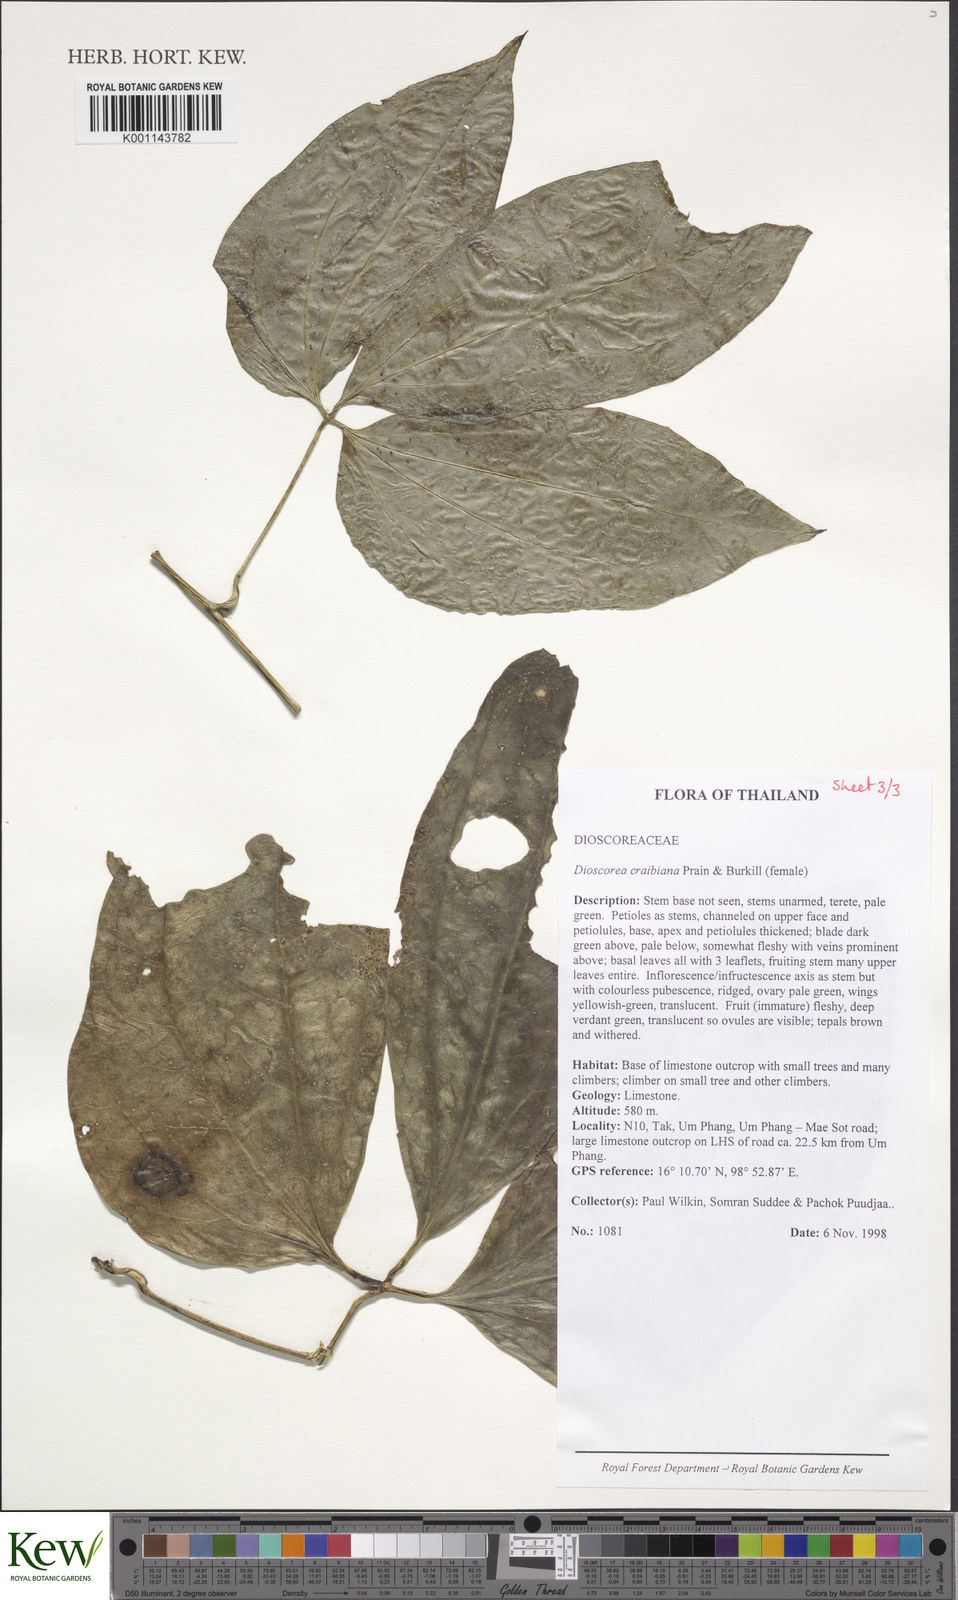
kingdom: Plantae
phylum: Tracheophyta
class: Liliopsida
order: Dioscoreales
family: Dioscoreaceae
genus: Dioscorea
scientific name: Dioscorea craibiana
